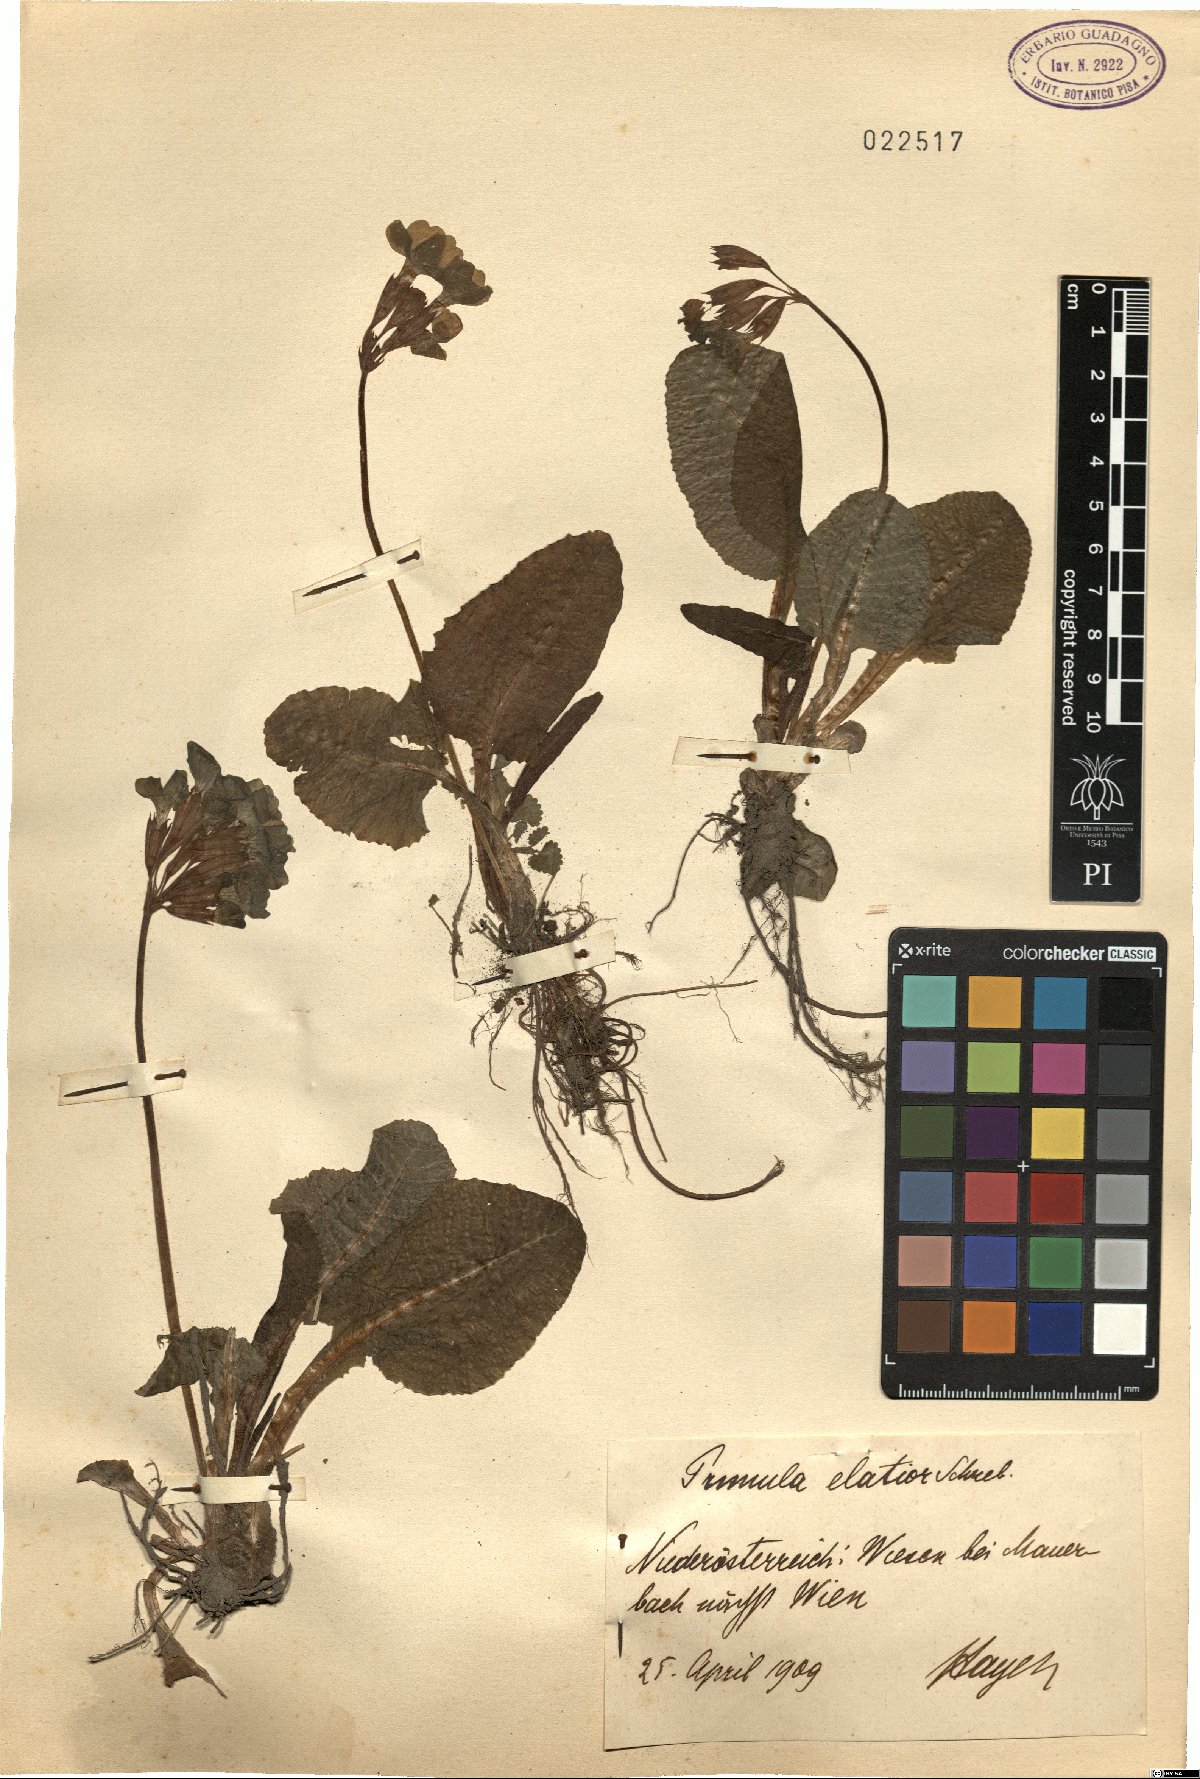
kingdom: Plantae
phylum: Tracheophyta
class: Magnoliopsida
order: Ericales
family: Primulaceae
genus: Primula
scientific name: Primula elatior
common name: Oxlip
